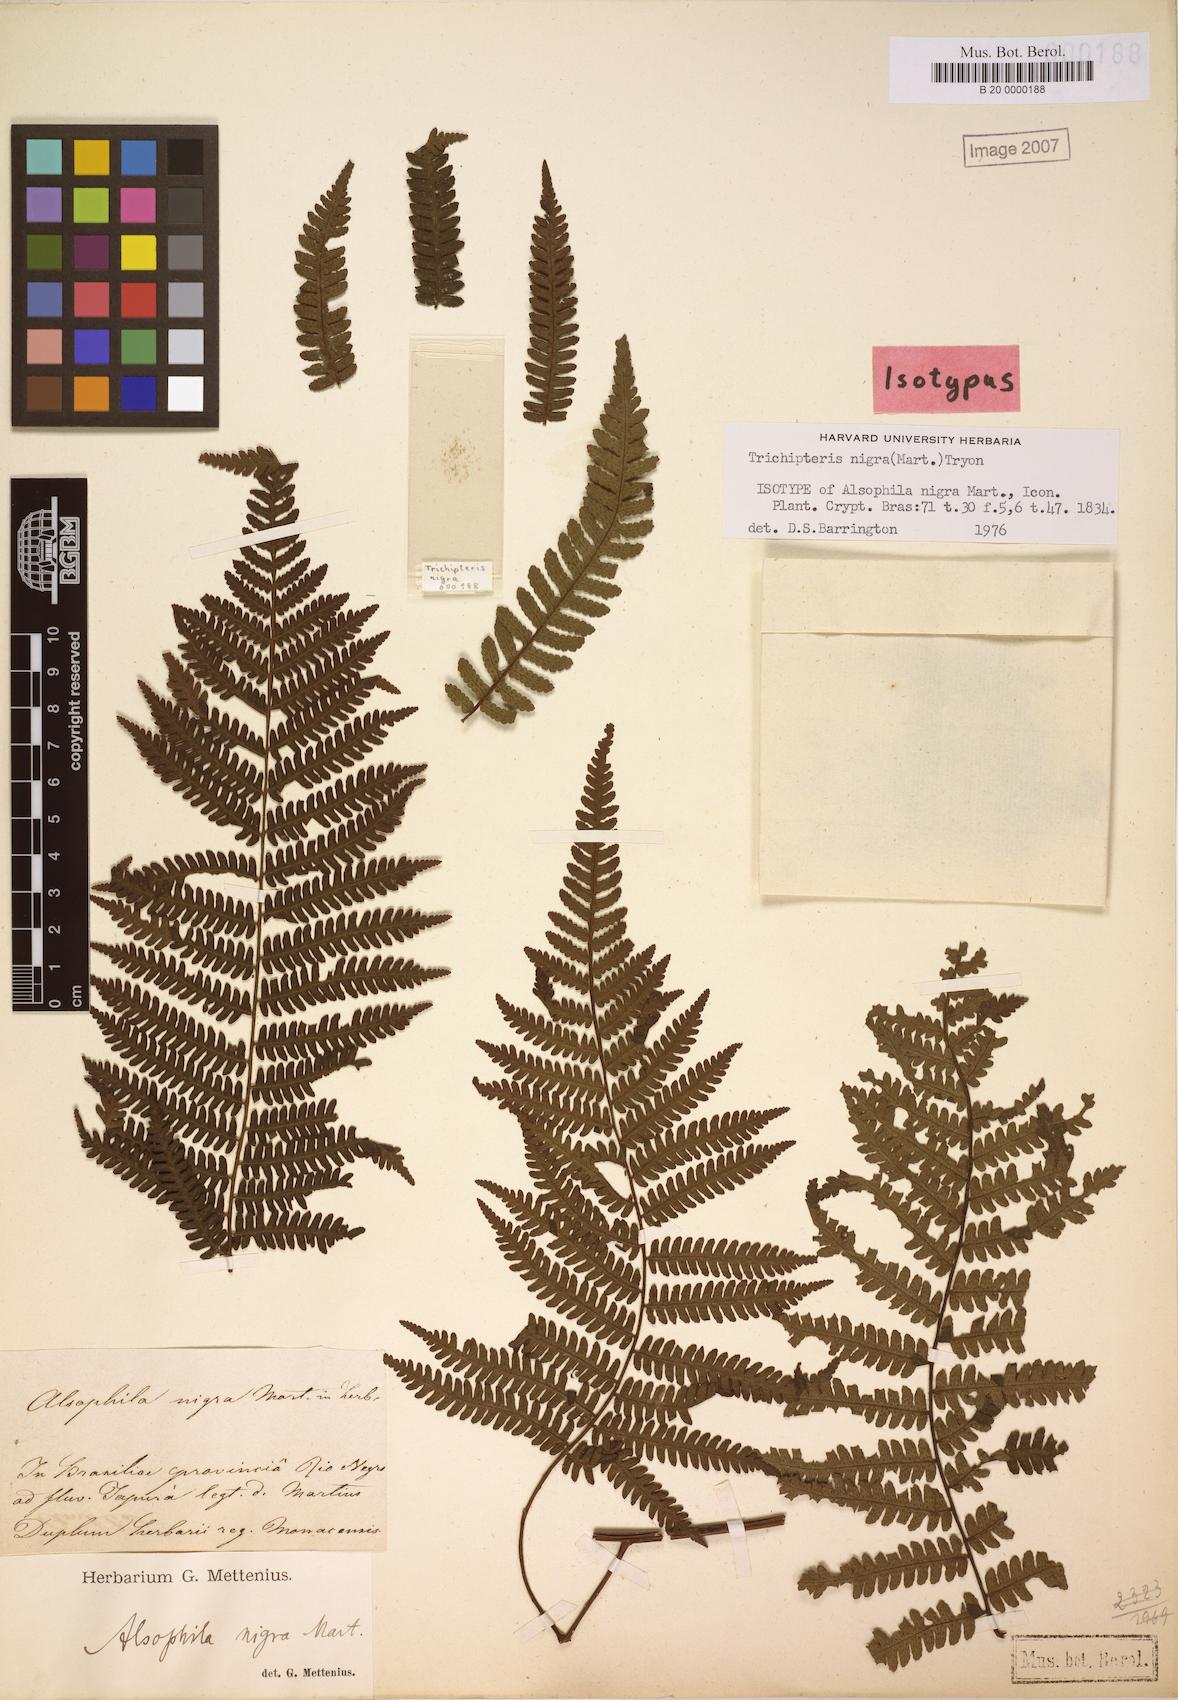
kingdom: Plantae
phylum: Tracheophyta
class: Polypodiopsida
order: Cyatheales
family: Cyatheaceae
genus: Cyathea
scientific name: Cyathea lasiosora
